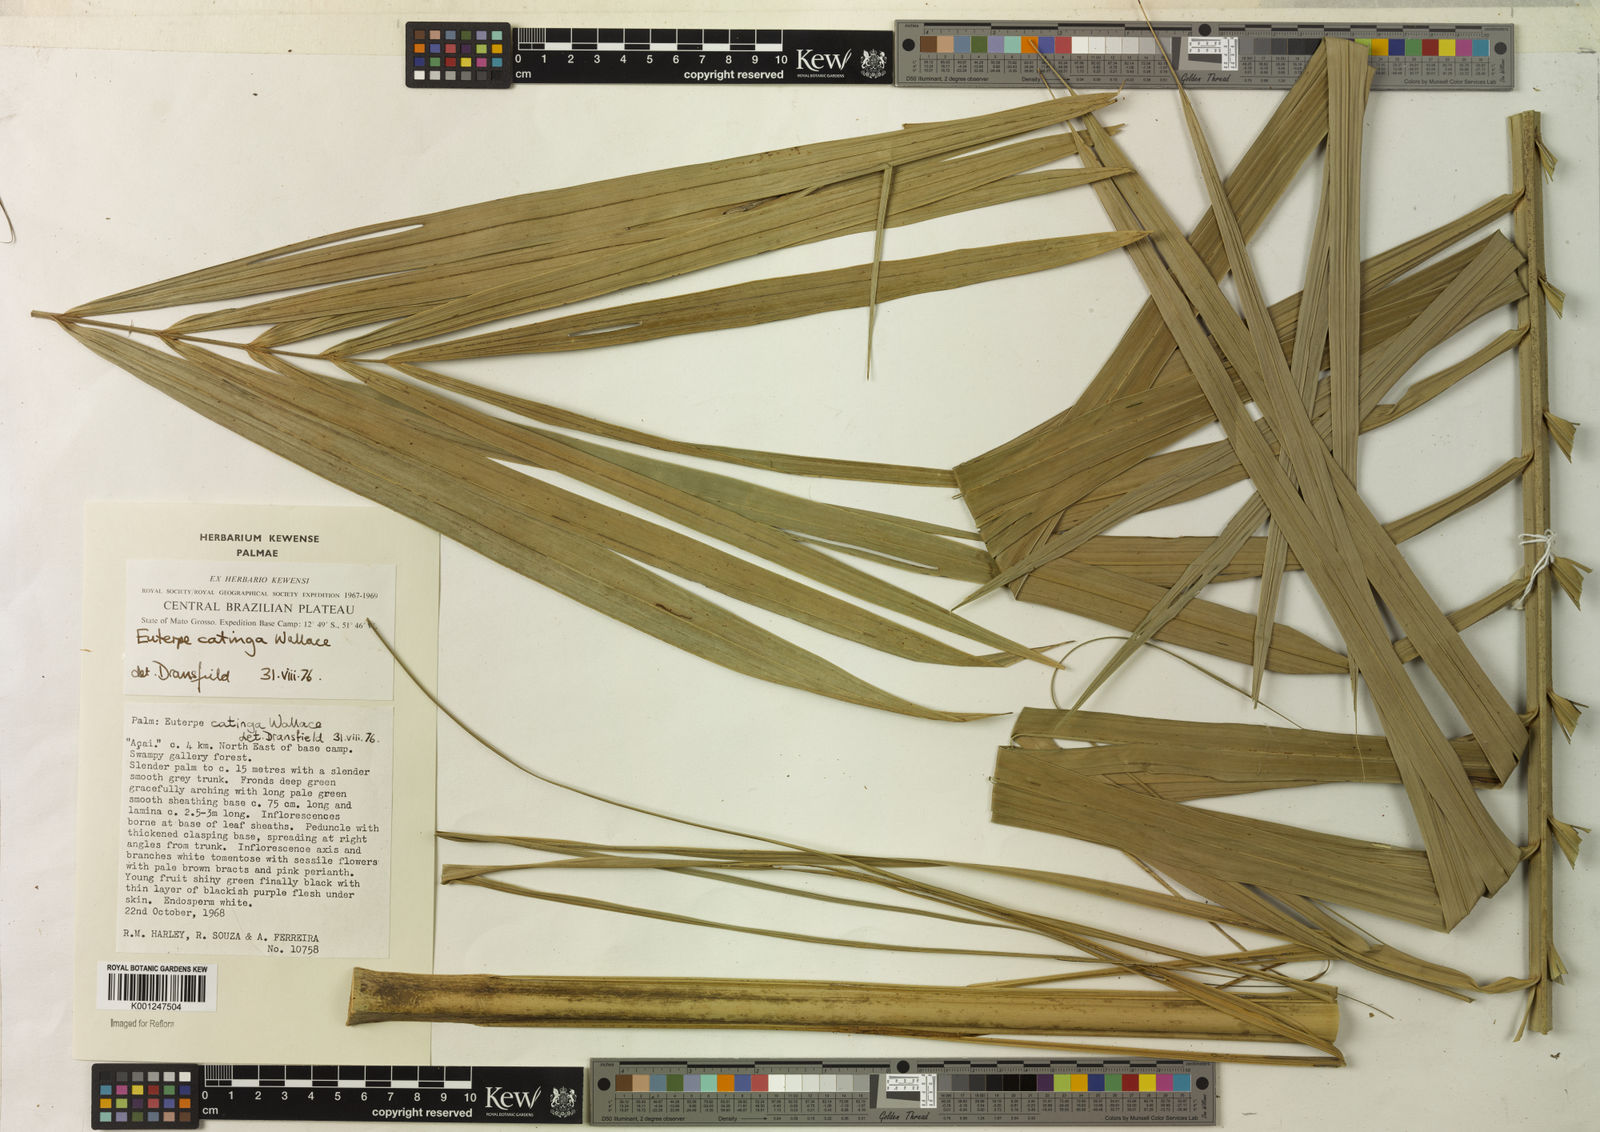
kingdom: Plantae
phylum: Tracheophyta
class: Liliopsida
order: Arecales
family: Arecaceae
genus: Euterpe
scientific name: Euterpe catinga
